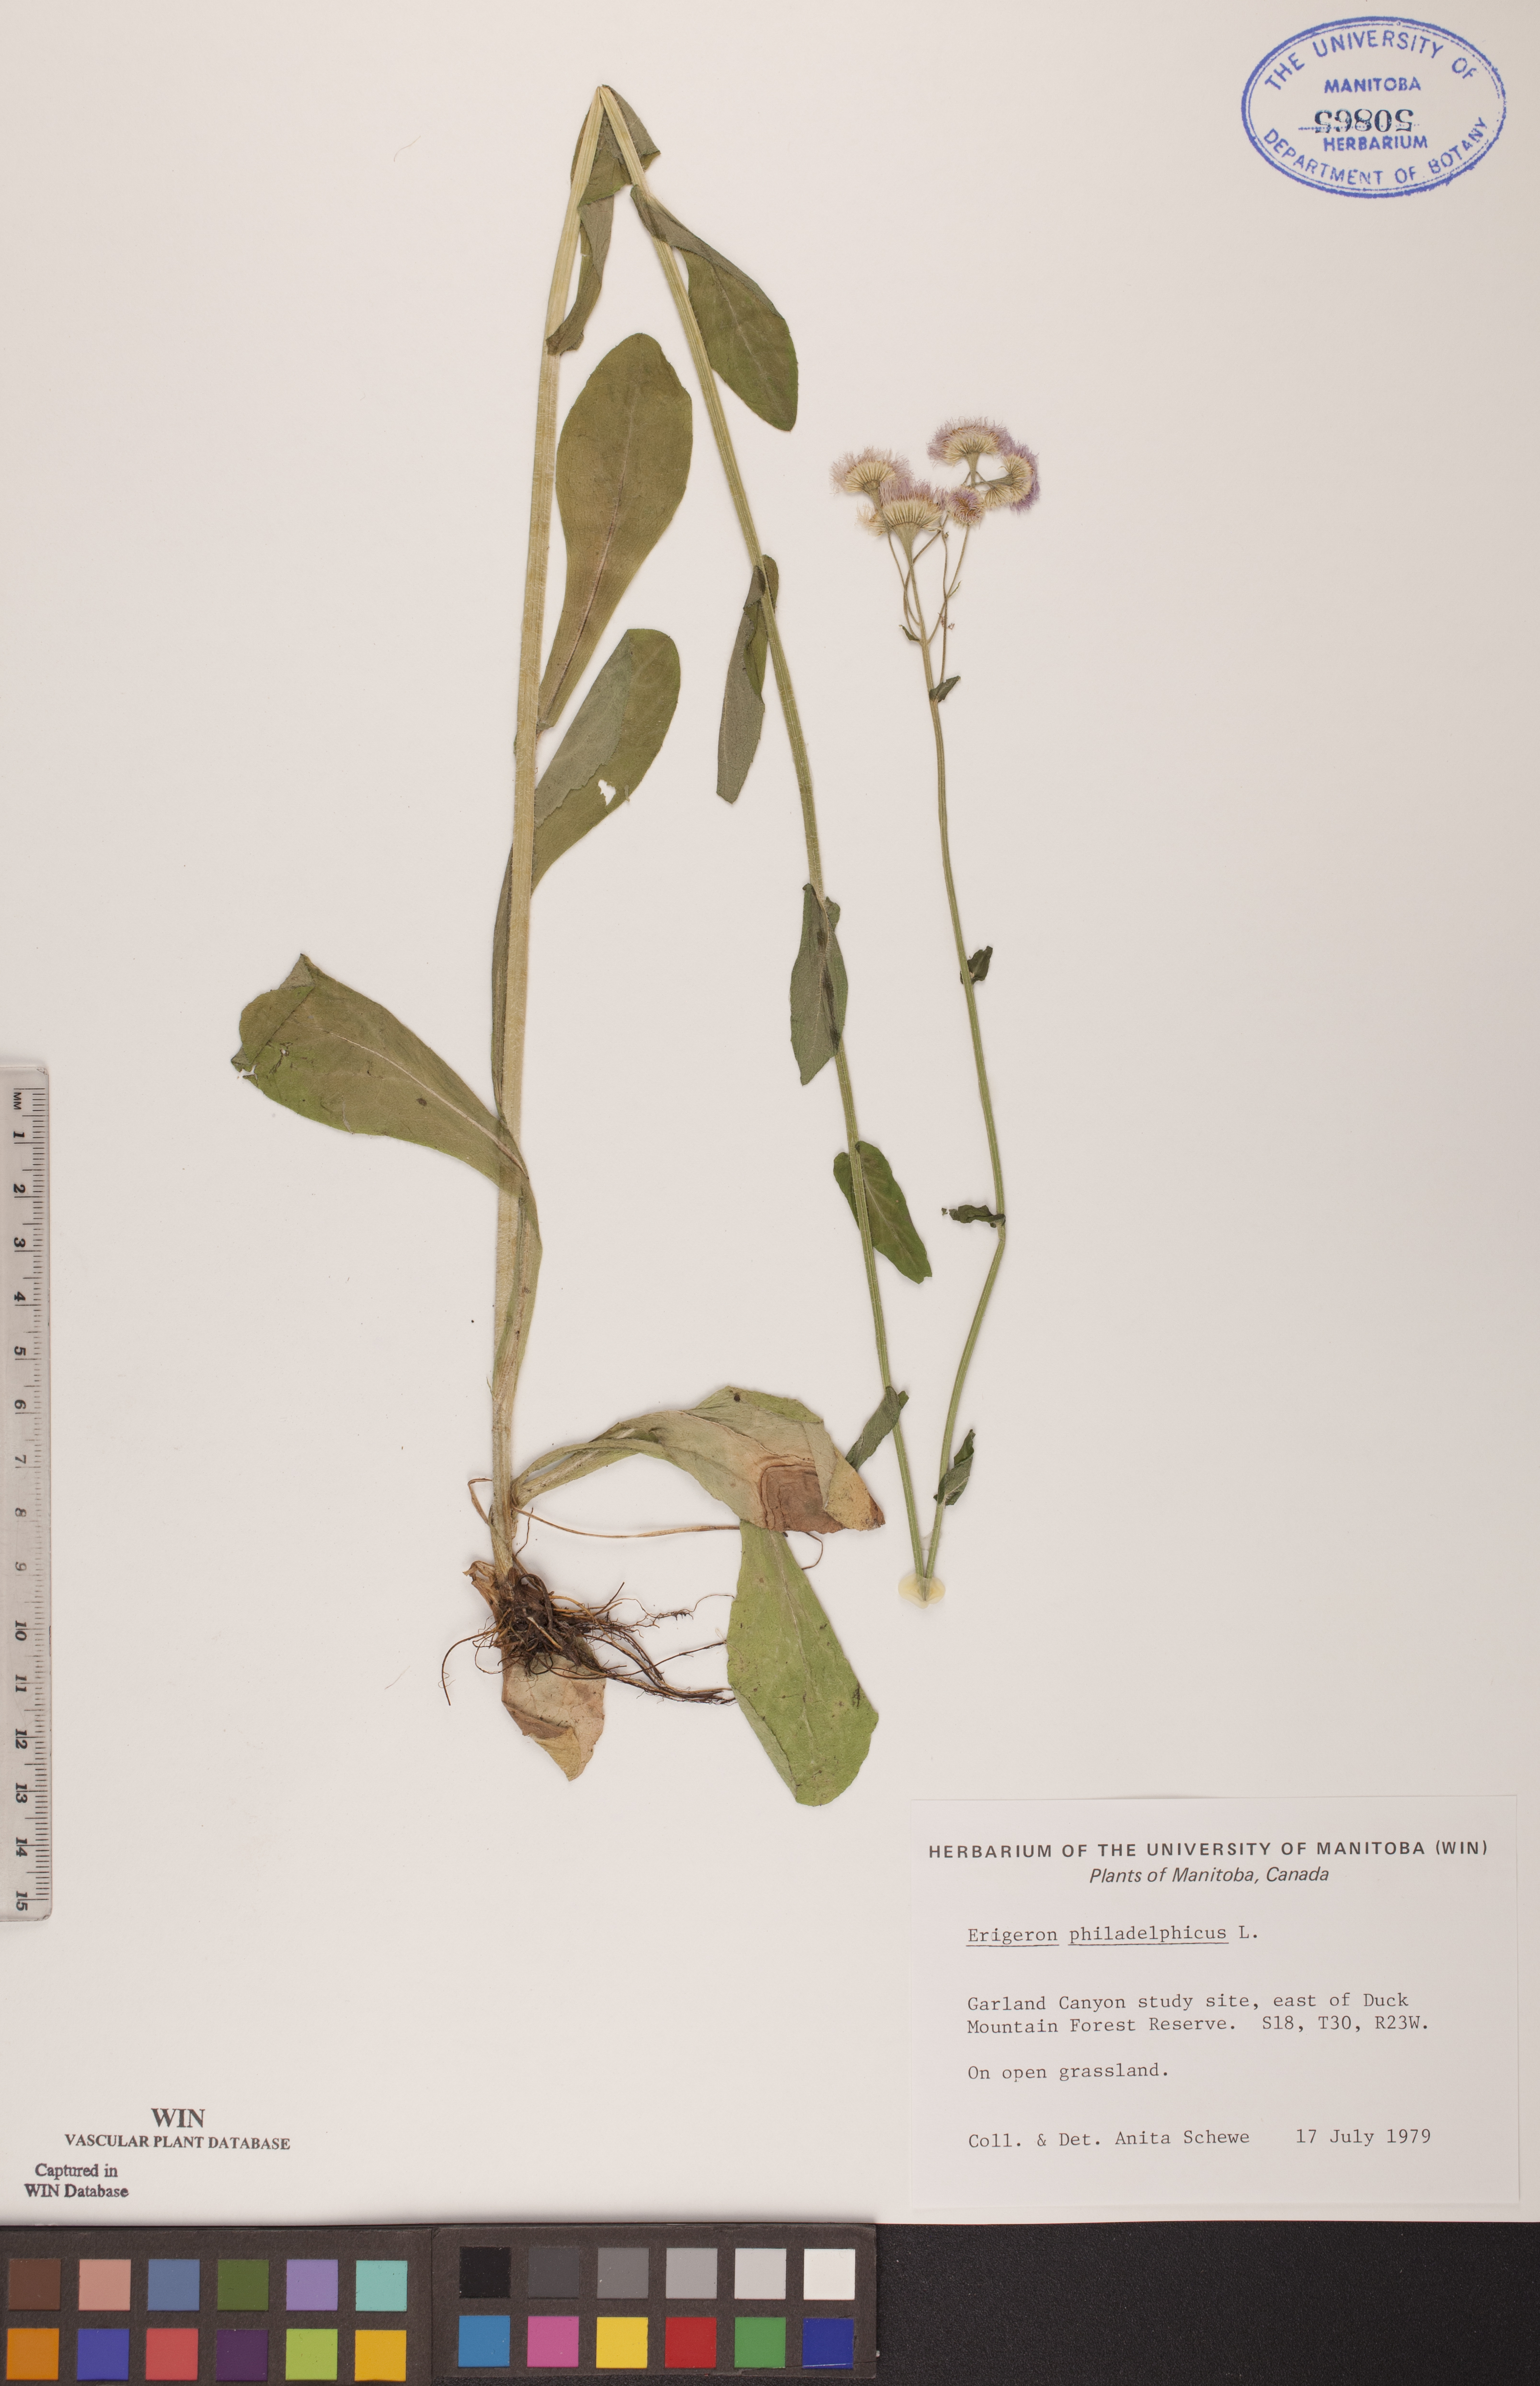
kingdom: Plantae
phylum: Tracheophyta
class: Magnoliopsida
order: Asterales
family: Asteraceae
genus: Erigeron
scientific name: Erigeron philadelphicus
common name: Robin's-plantain
